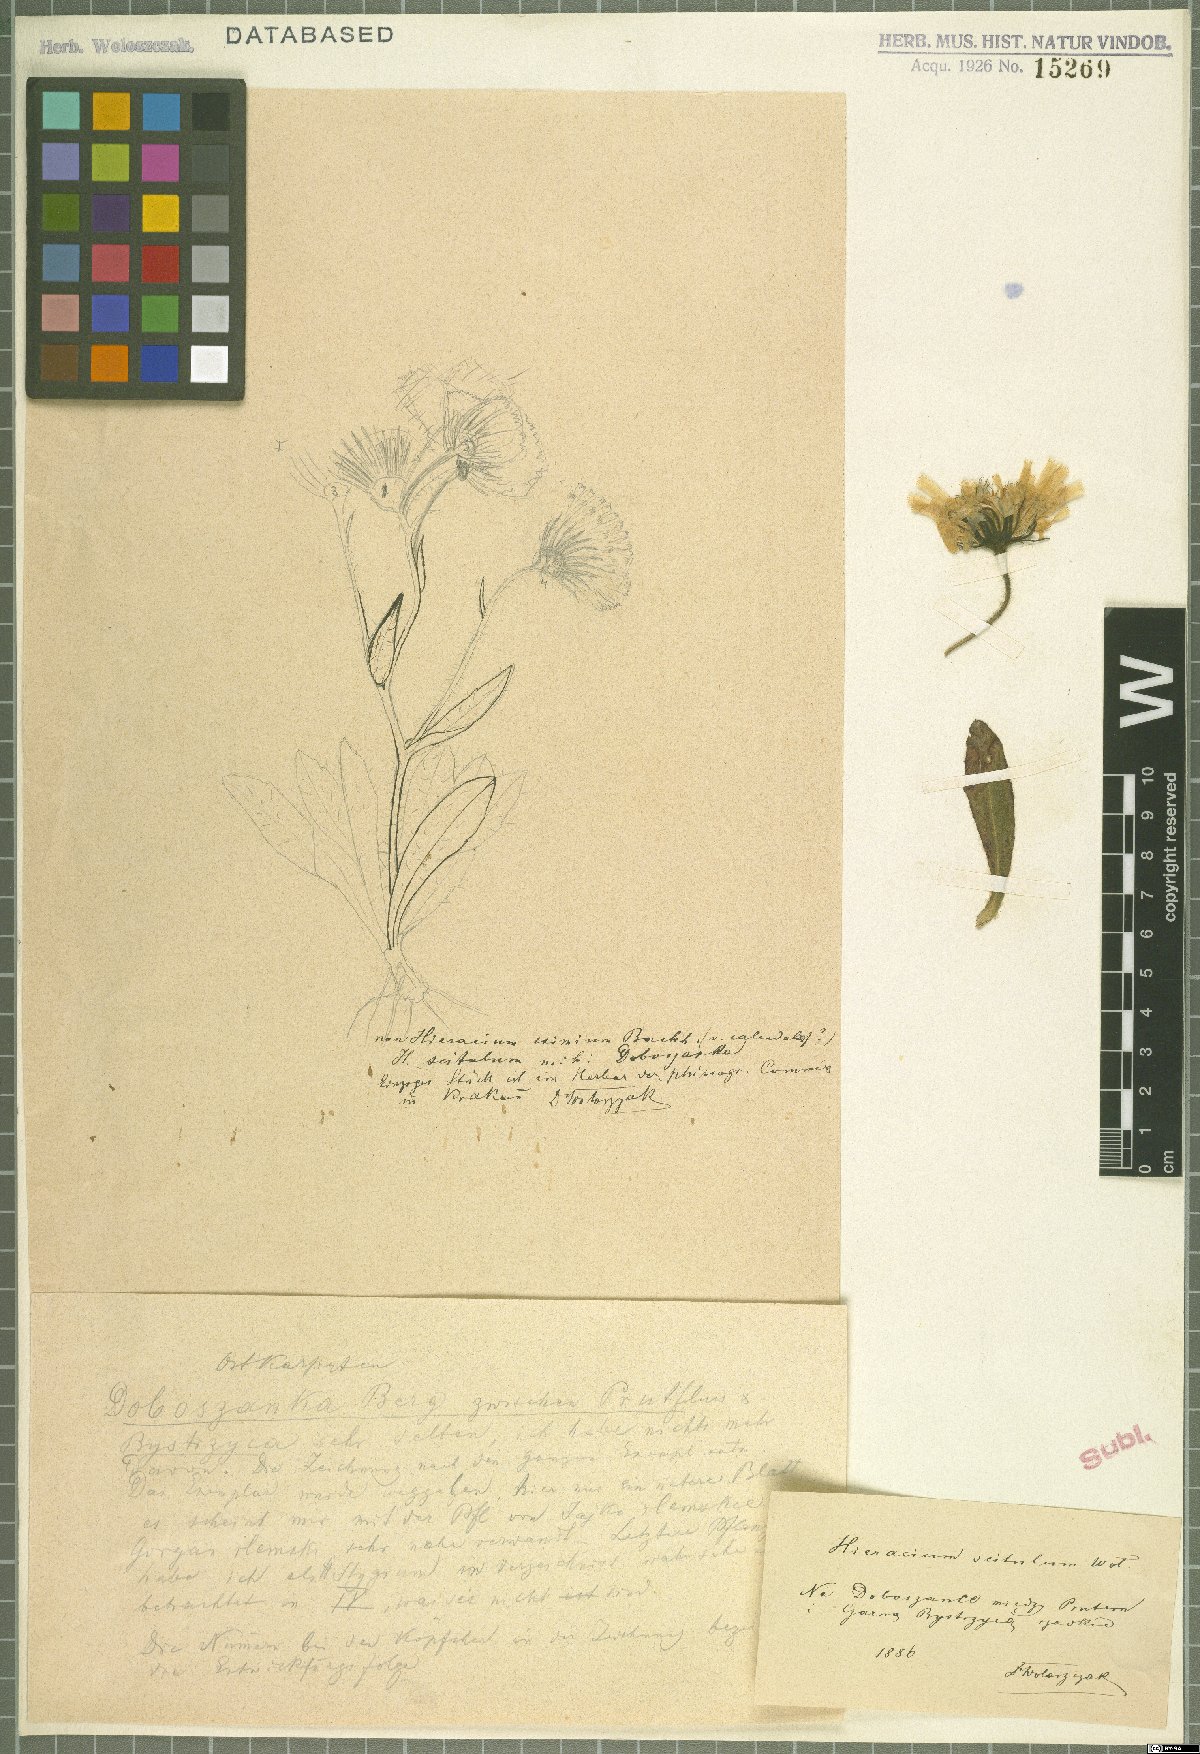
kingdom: Plantae
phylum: Tracheophyta
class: Magnoliopsida
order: Asterales
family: Asteraceae
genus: Hieracium
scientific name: Hieracium scitulum
